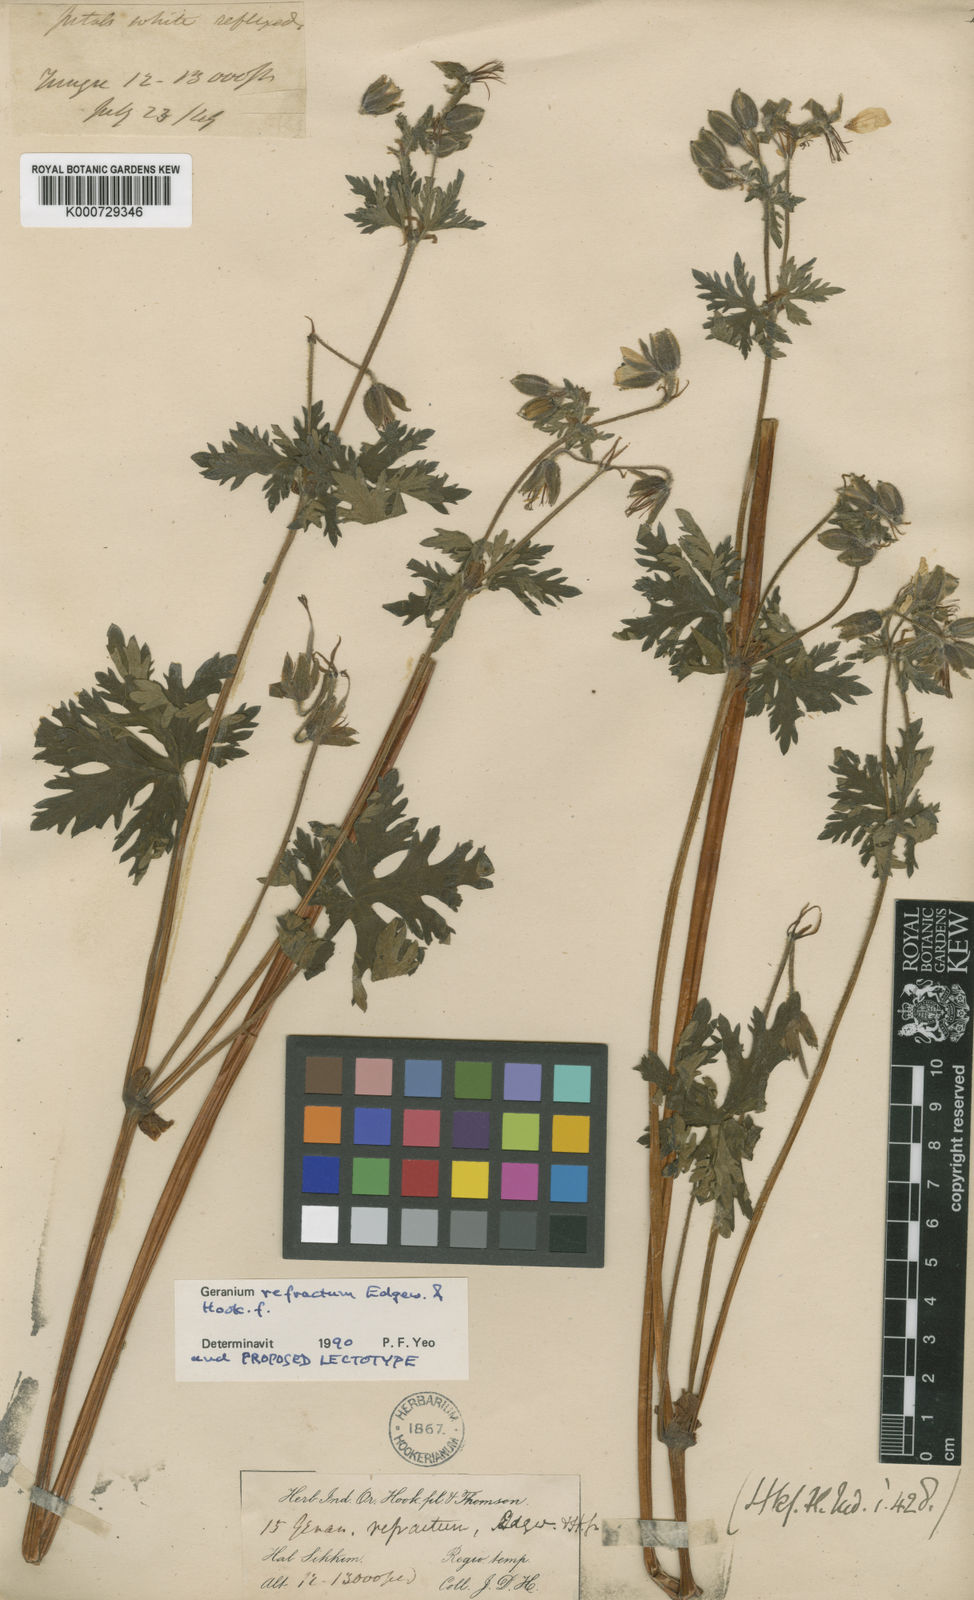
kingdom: Plantae
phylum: Tracheophyta
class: Magnoliopsida
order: Geraniales
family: Geraniaceae
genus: Geranium
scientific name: Geranium refractum
